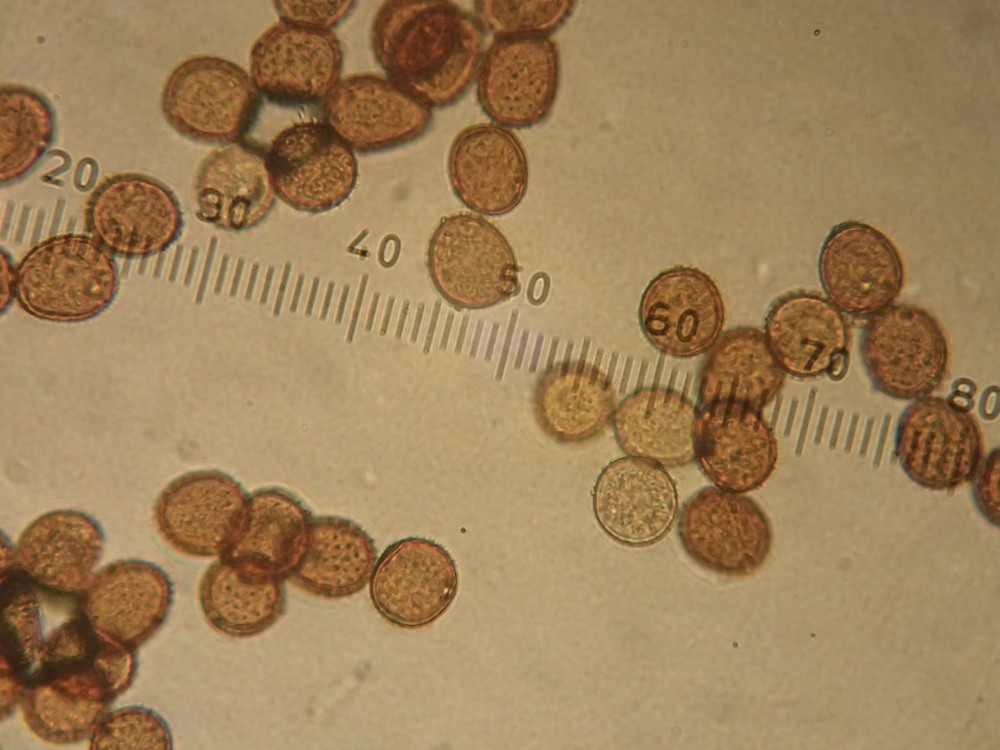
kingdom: Fungi
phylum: Basidiomycota
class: Pucciniomycetes
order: Pucciniales
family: Pucciniaceae
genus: Uromyces
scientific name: Uromyces rumicis
